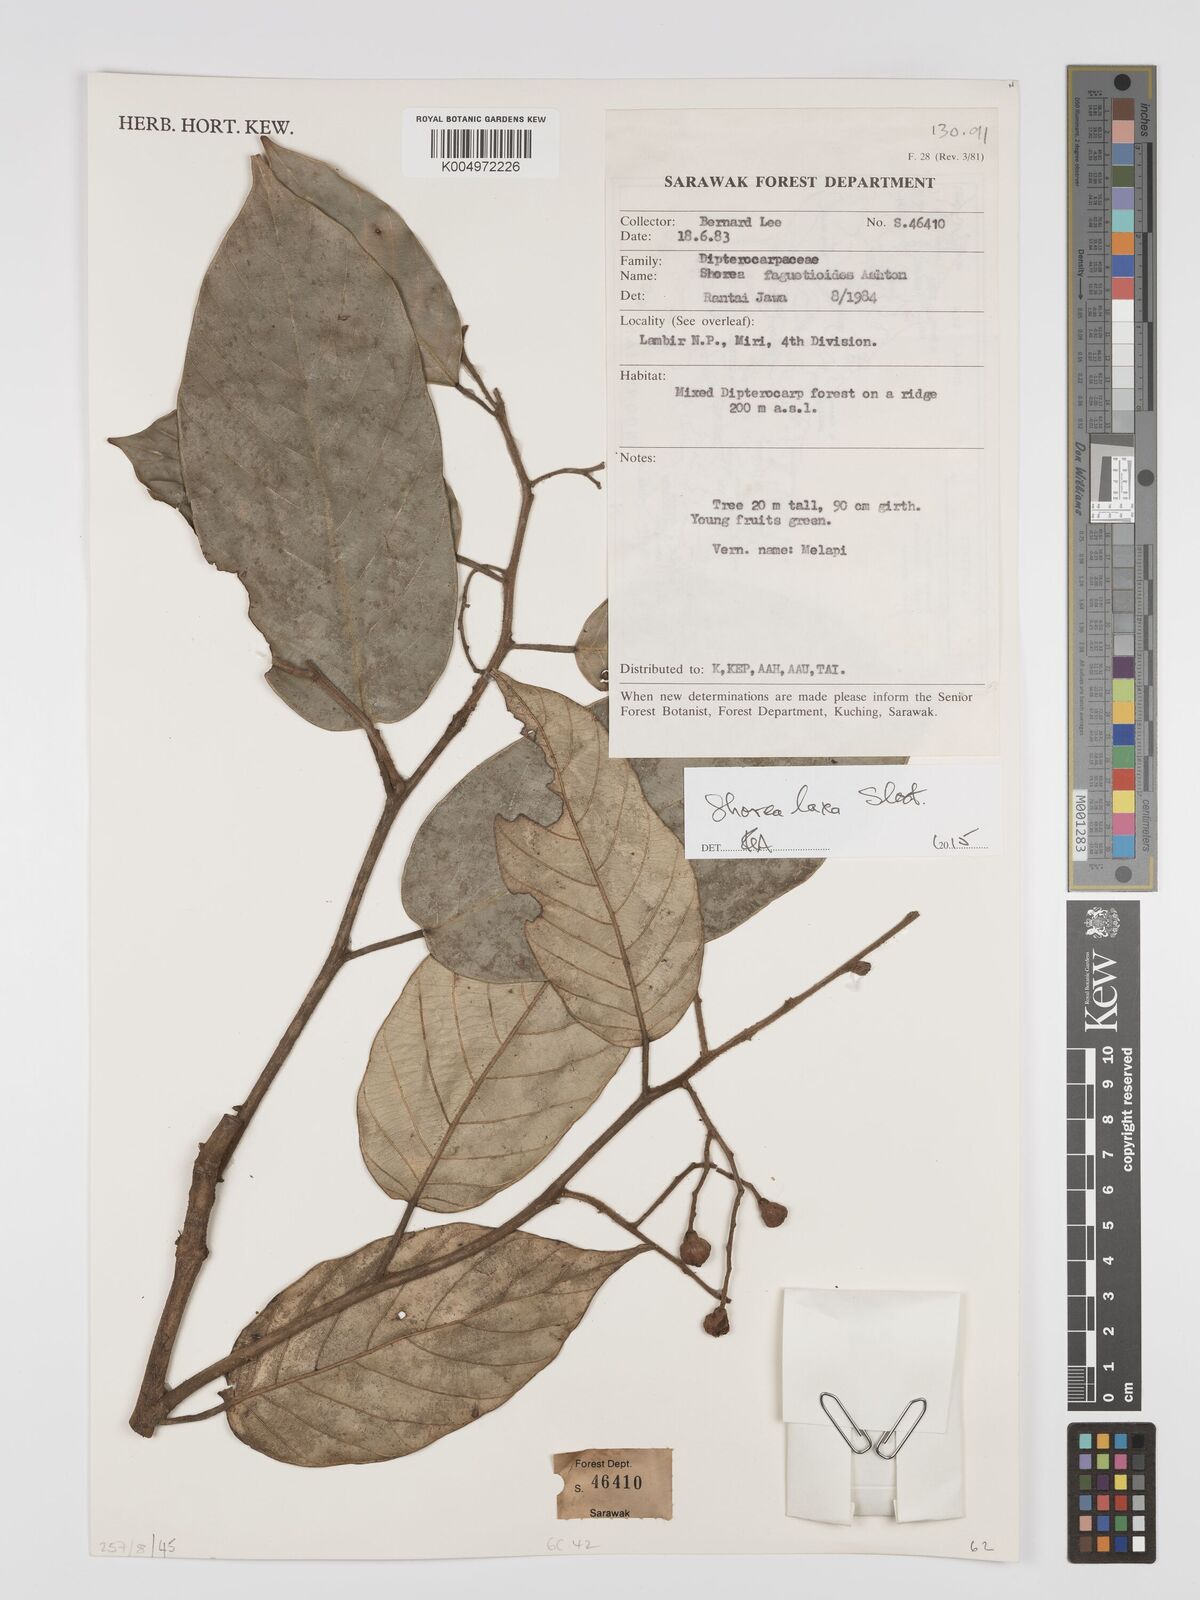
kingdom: Plantae
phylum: Tracheophyta
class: Magnoliopsida
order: Malvales
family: Dipterocarpaceae
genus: Shorea
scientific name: Shorea laxa
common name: Yellow meranti
